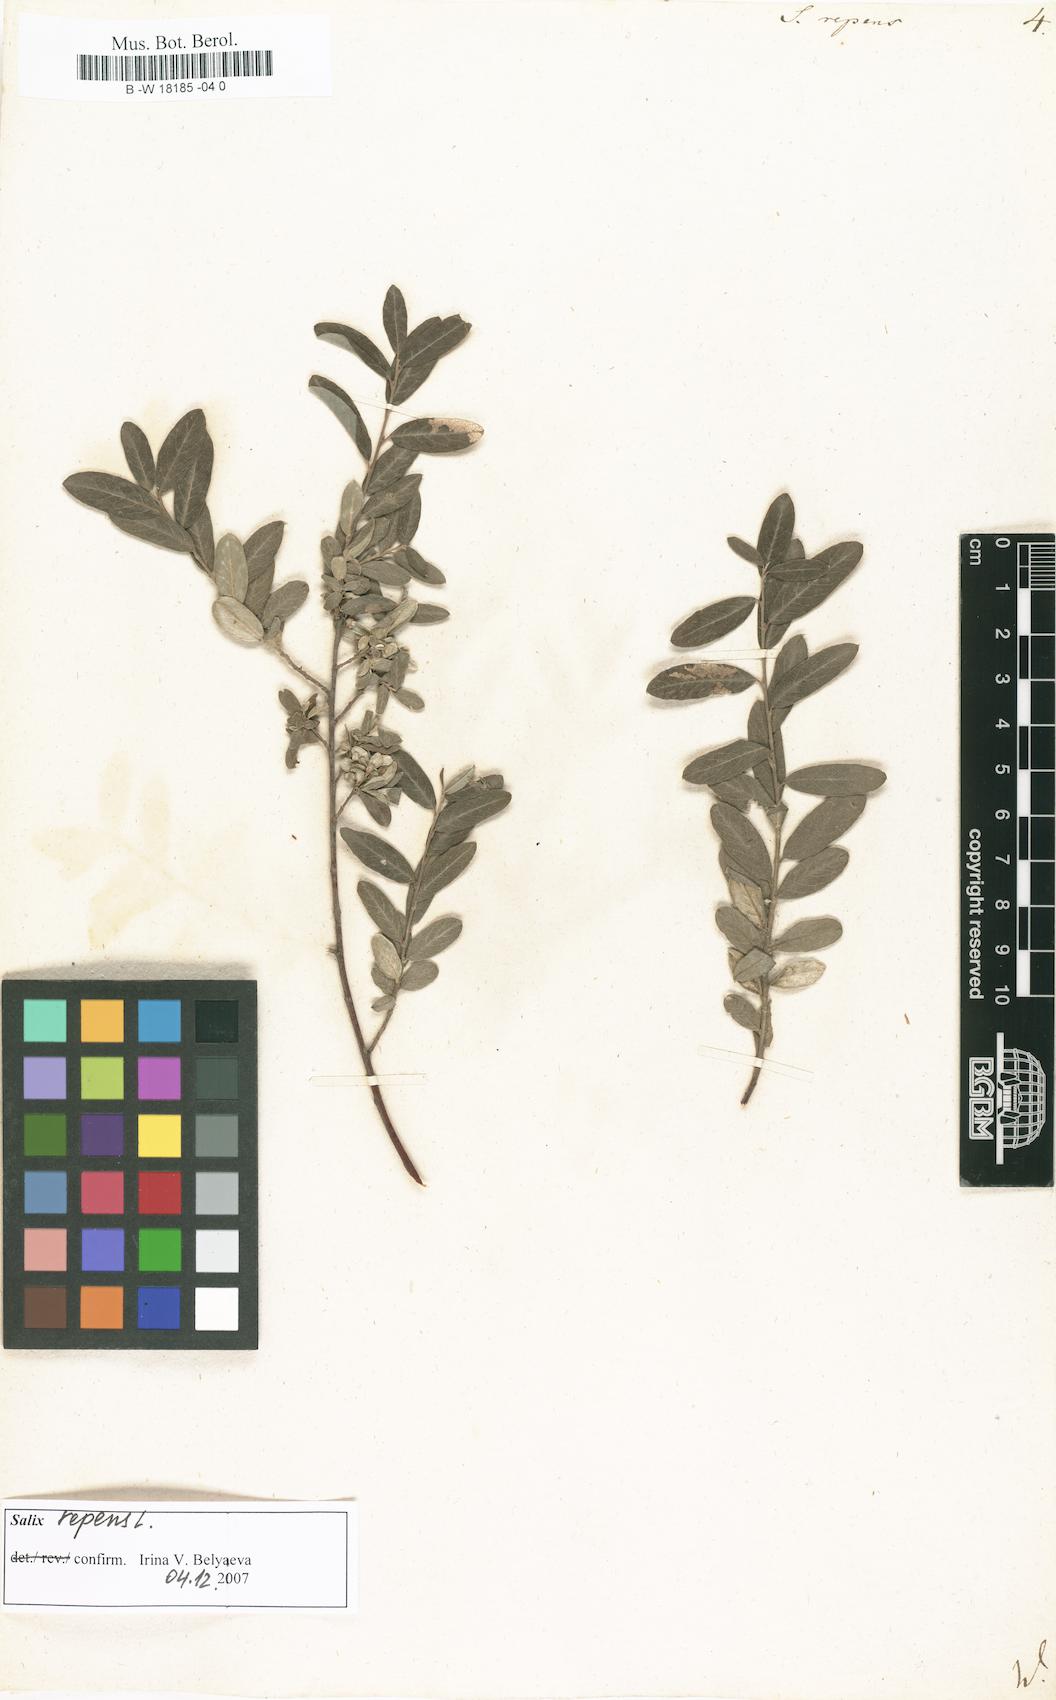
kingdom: Plantae
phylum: Tracheophyta
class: Magnoliopsida
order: Malpighiales
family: Salicaceae
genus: Salix
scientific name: Salix repens
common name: Creeping willow
